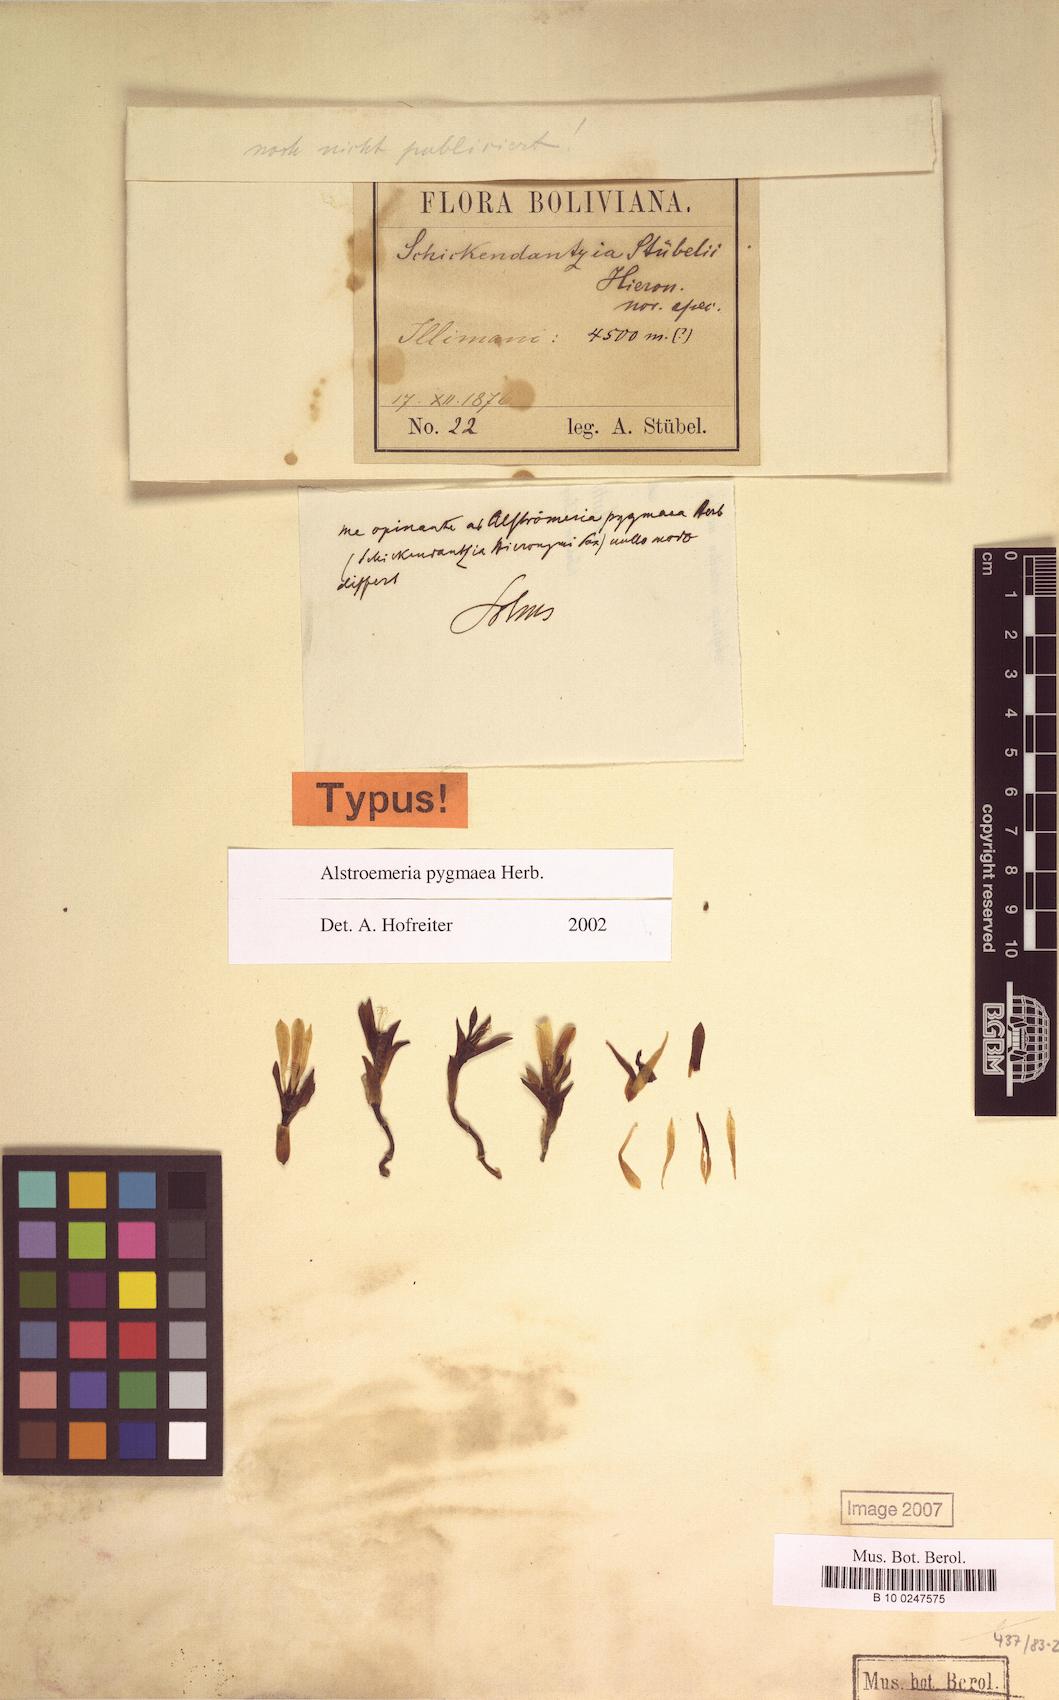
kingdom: Plantae
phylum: Tracheophyta
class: Liliopsida
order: Liliales
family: Alstroemeriaceae
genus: Alstroemeria
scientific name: Alstroemeria pygmaea
